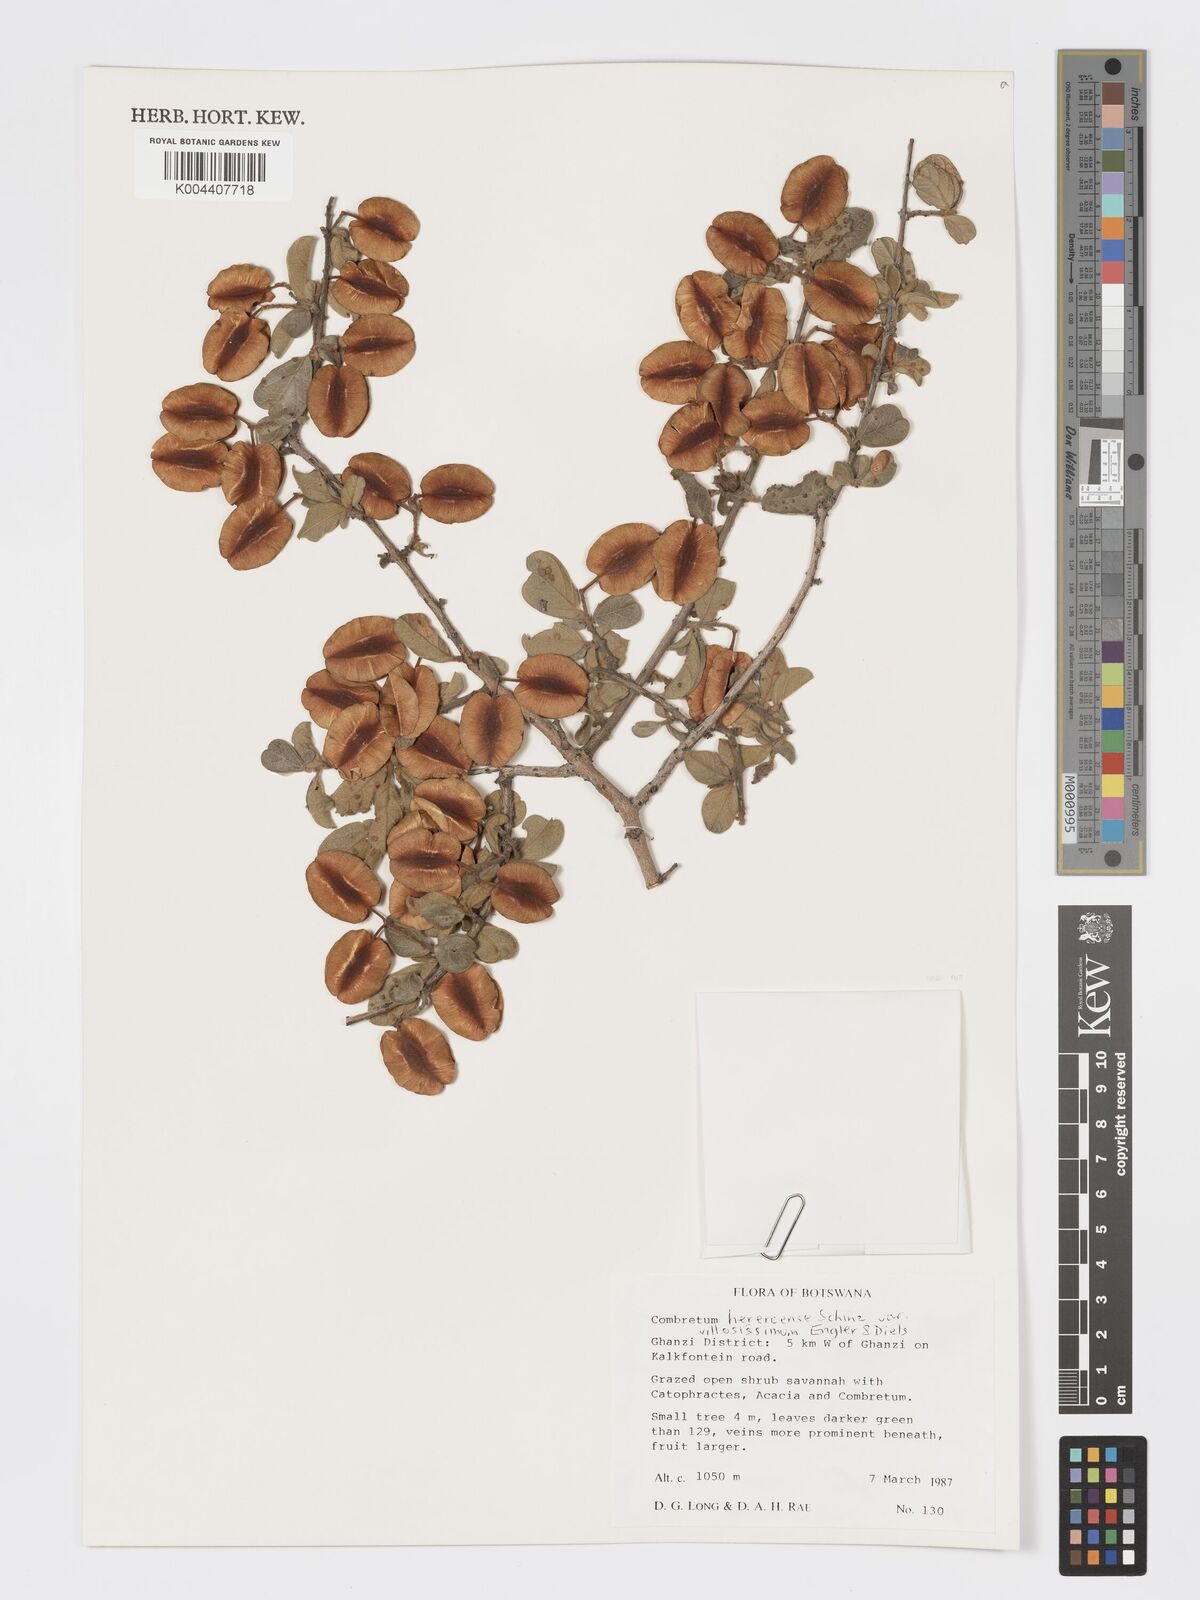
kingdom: Plantae
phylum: Tracheophyta
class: Magnoliopsida
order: Myrtales
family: Combretaceae
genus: Combretum
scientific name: Combretum hereroense
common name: Russet bushwillow
